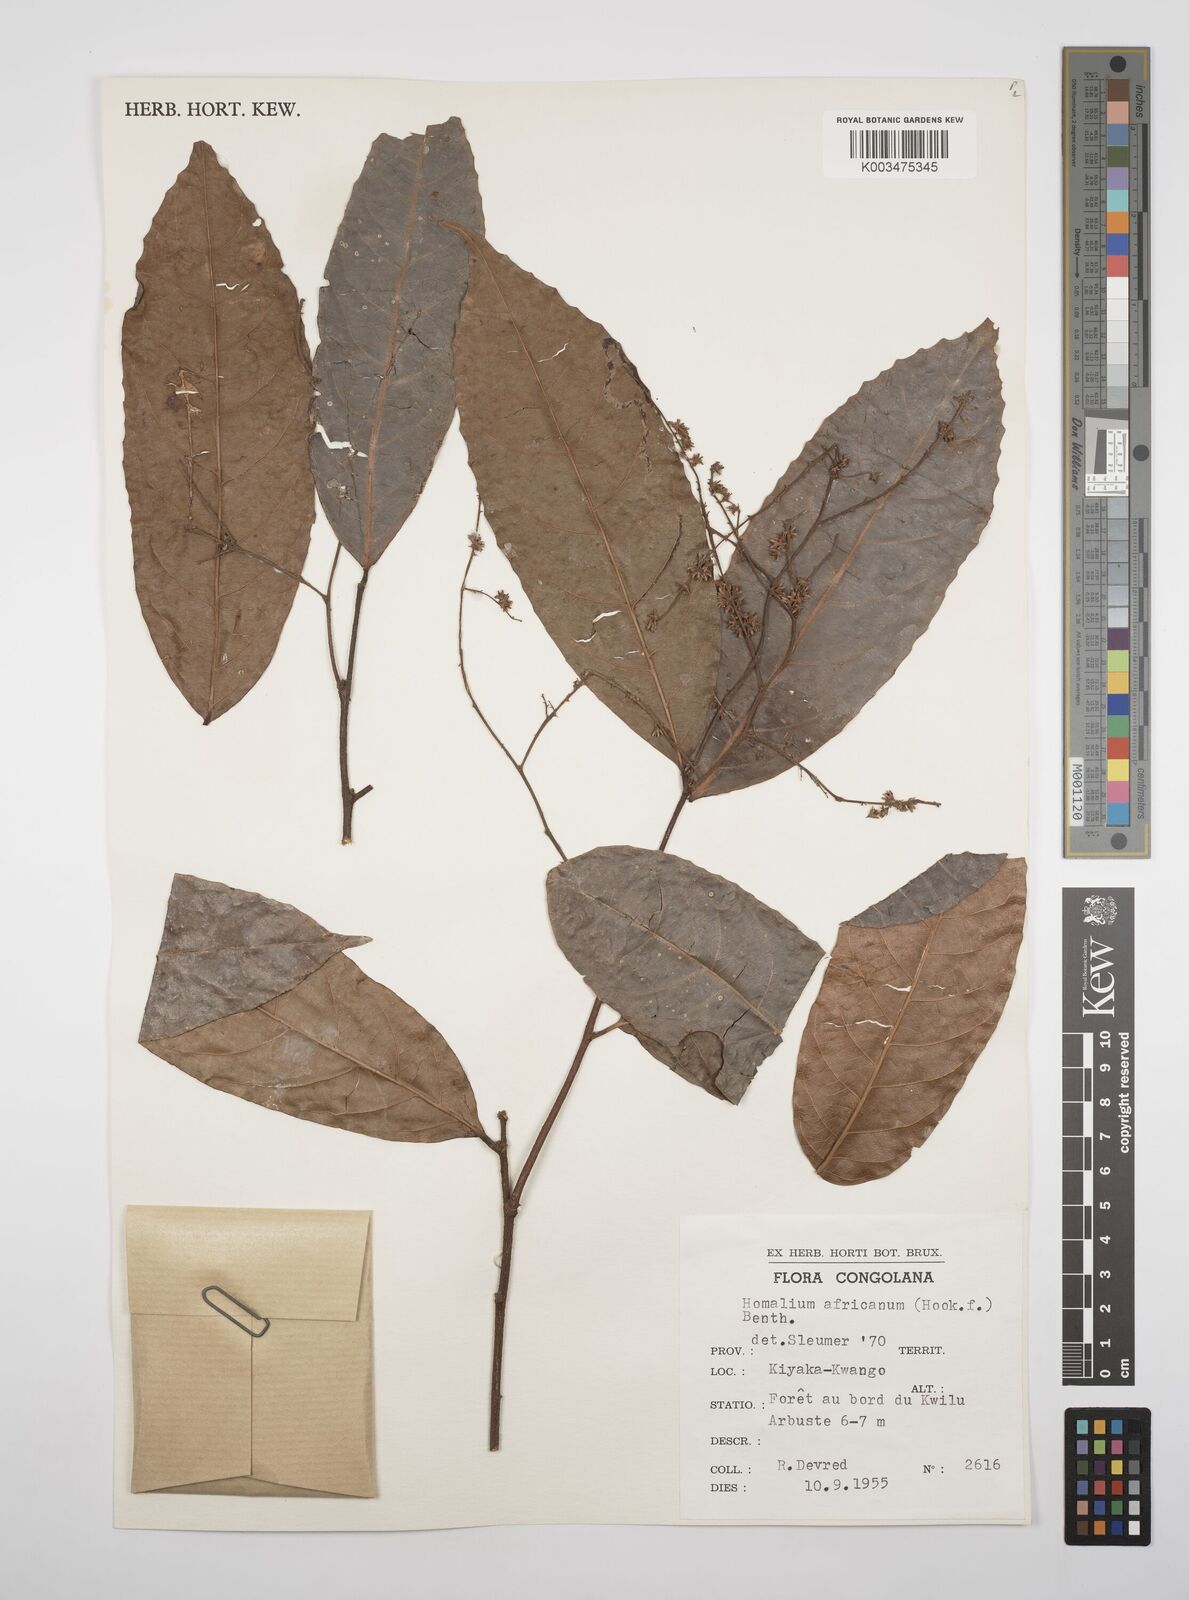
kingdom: Plantae
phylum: Tracheophyta
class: Magnoliopsida
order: Malpighiales
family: Salicaceae
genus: Homalium
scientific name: Homalium africanum
